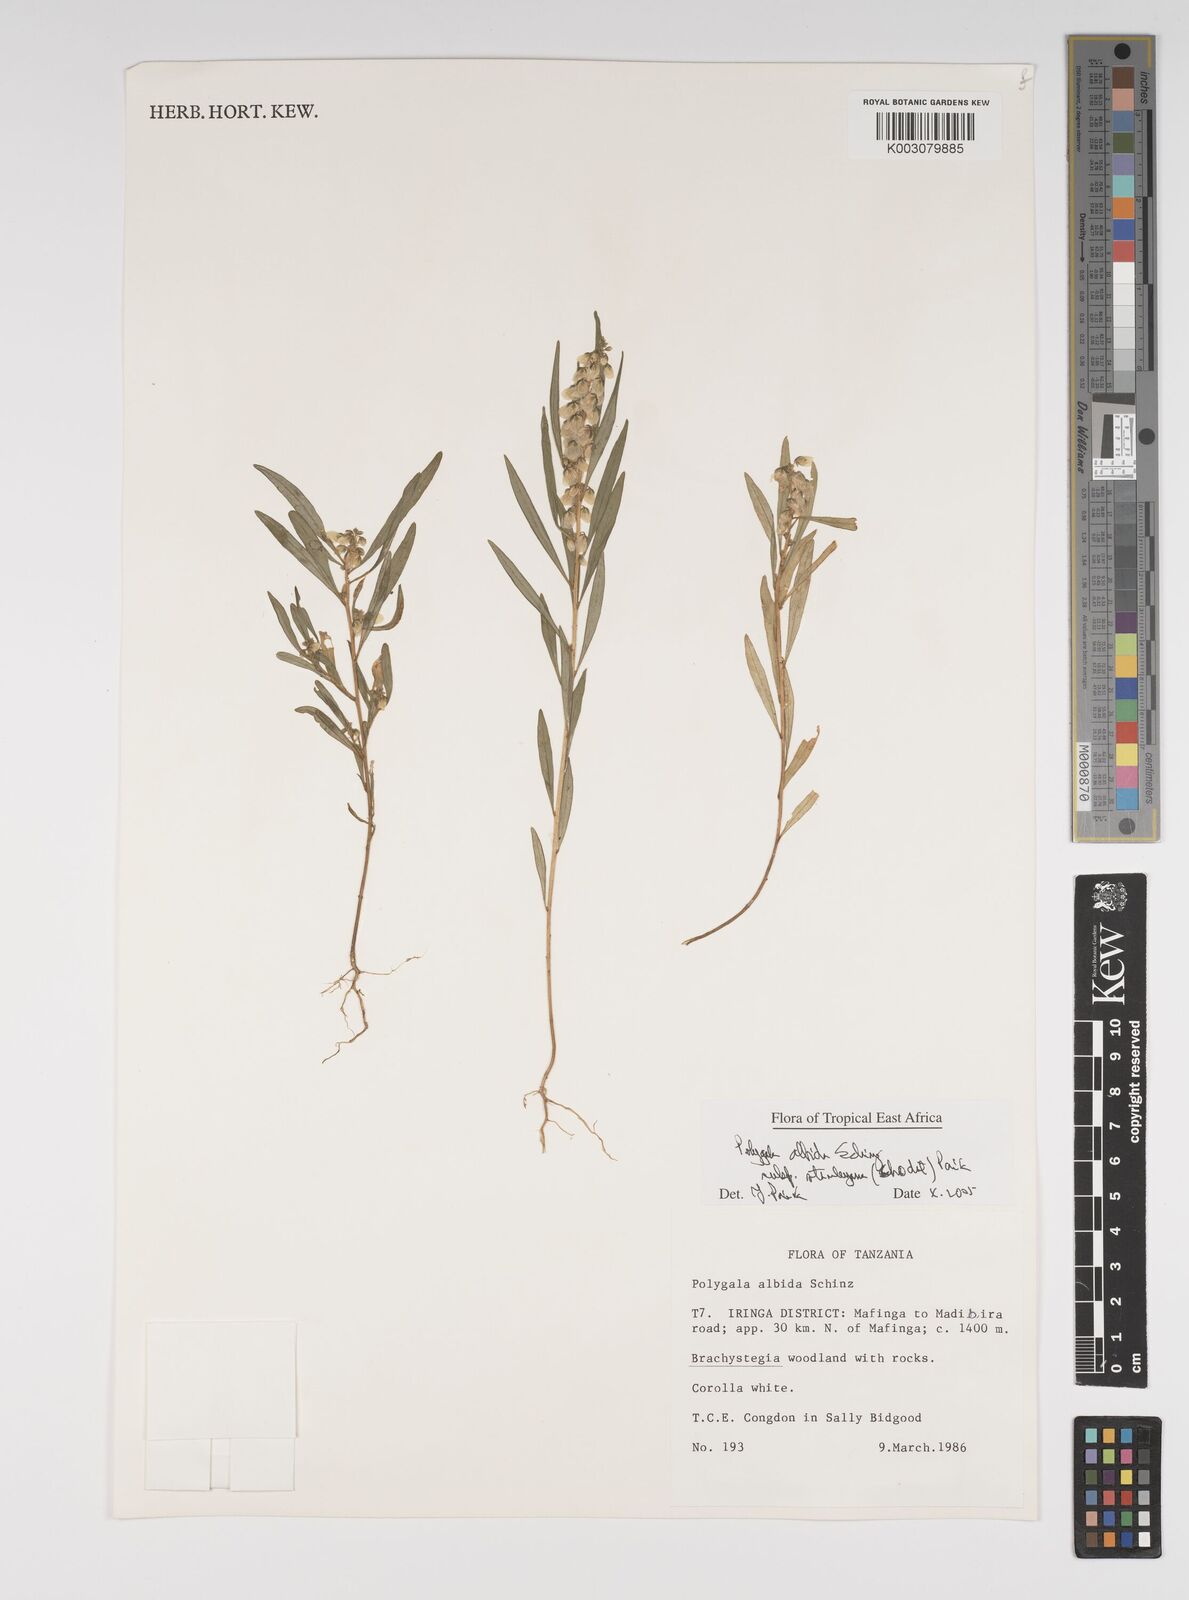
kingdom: Plantae
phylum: Tracheophyta
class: Magnoliopsida
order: Fabales
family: Polygalaceae
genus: Polygala
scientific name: Polygala albida
